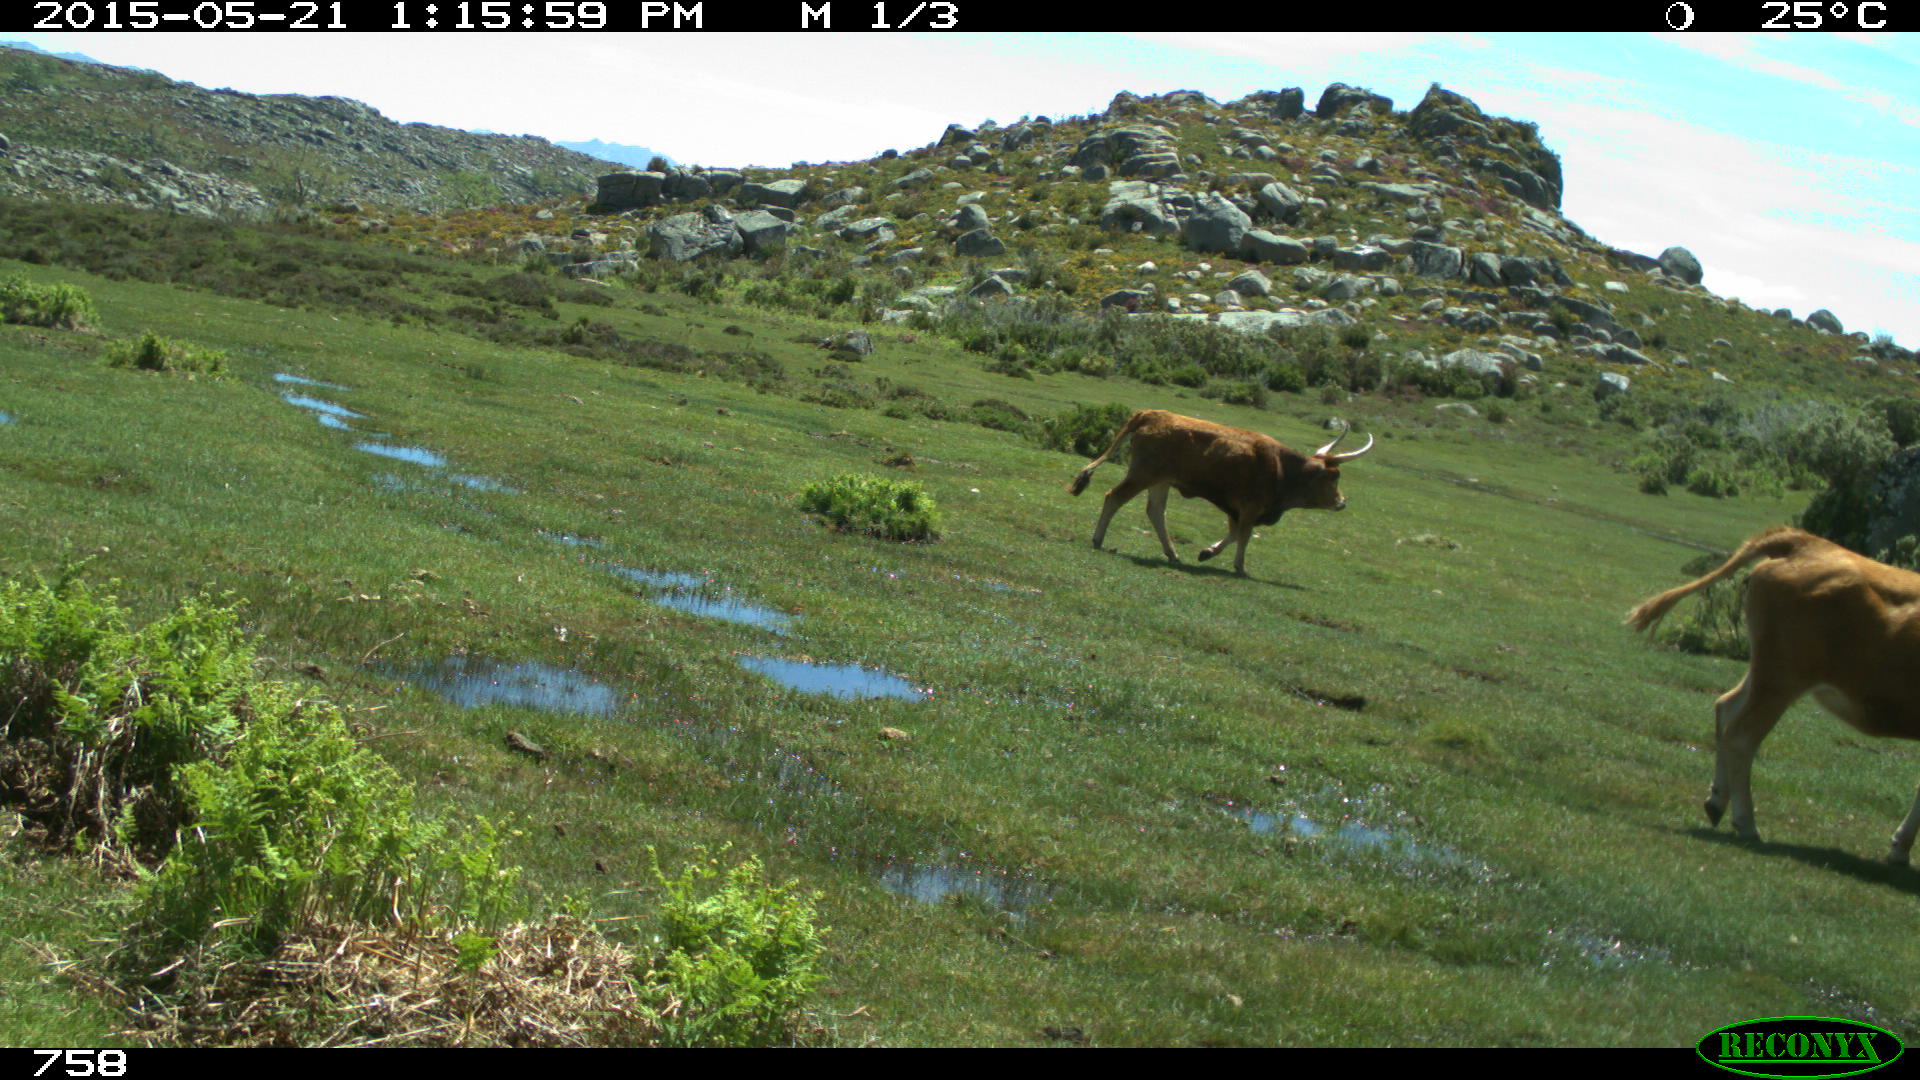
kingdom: Animalia
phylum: Chordata
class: Mammalia
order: Artiodactyla
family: Bovidae
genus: Bos
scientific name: Bos taurus
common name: Domesticated cattle
